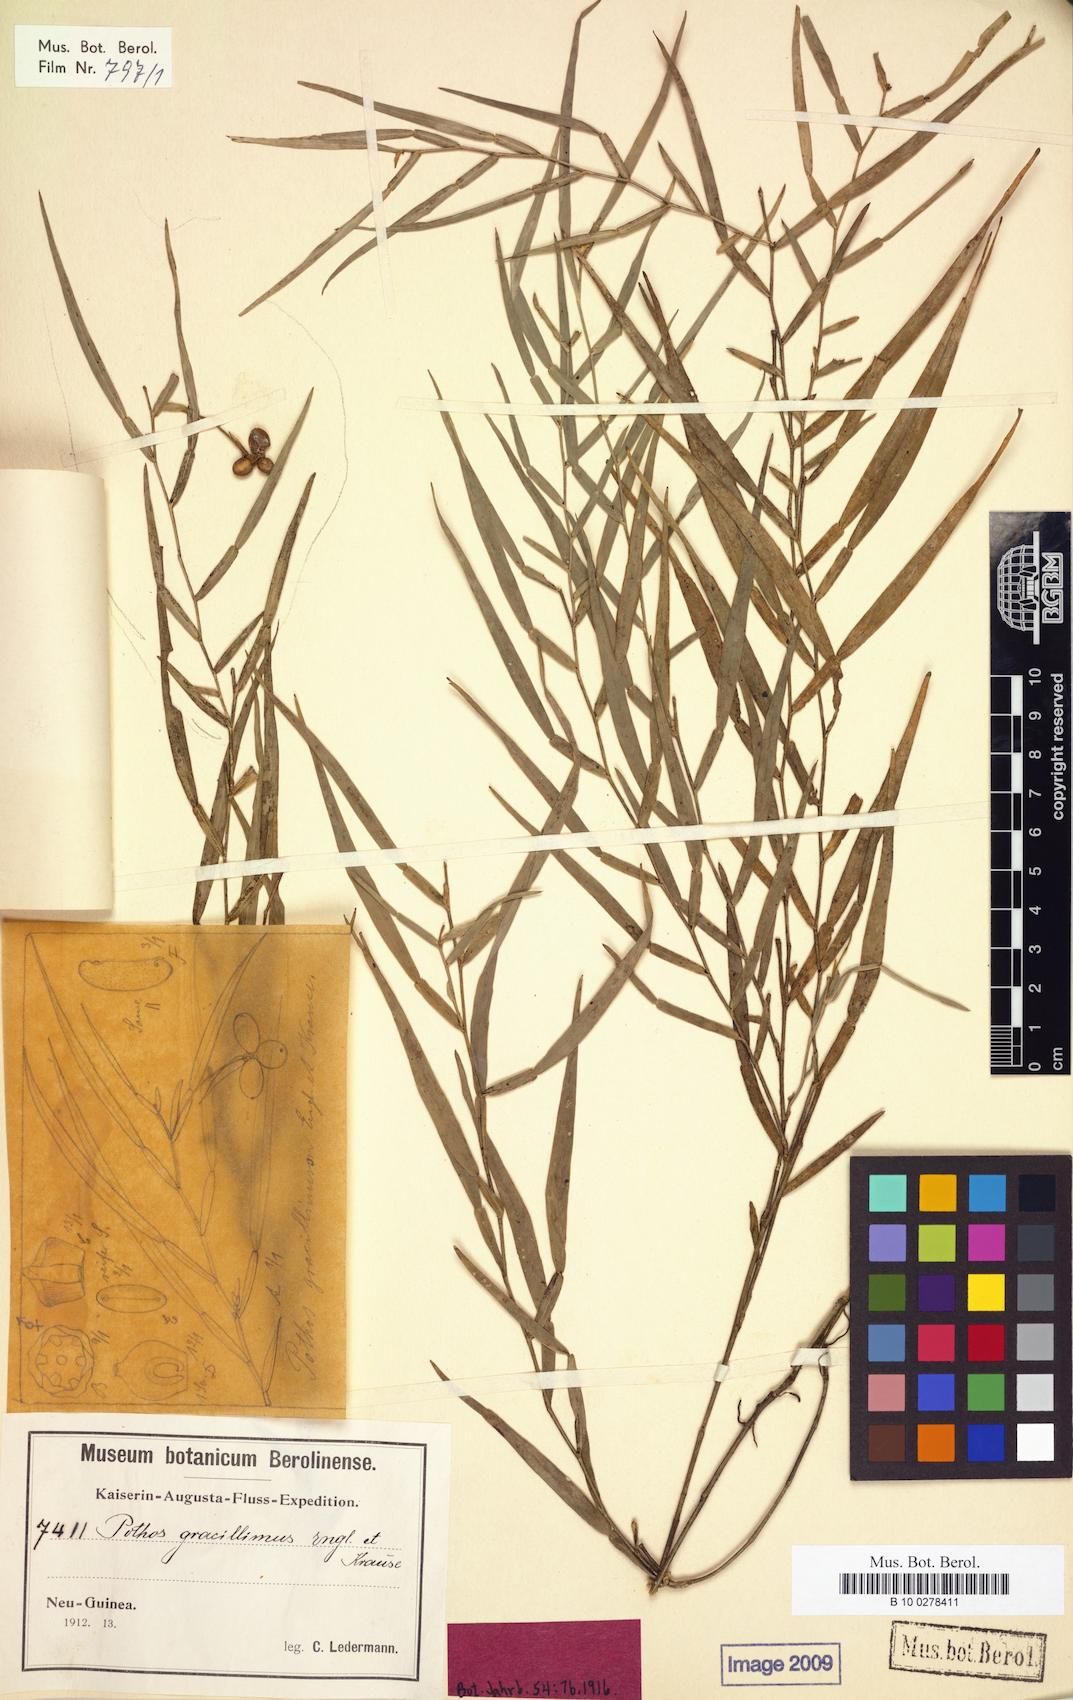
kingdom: Plantae
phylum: Tracheophyta
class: Liliopsida
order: Alismatales
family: Araceae
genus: Pothos
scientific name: Pothos gracillimus
